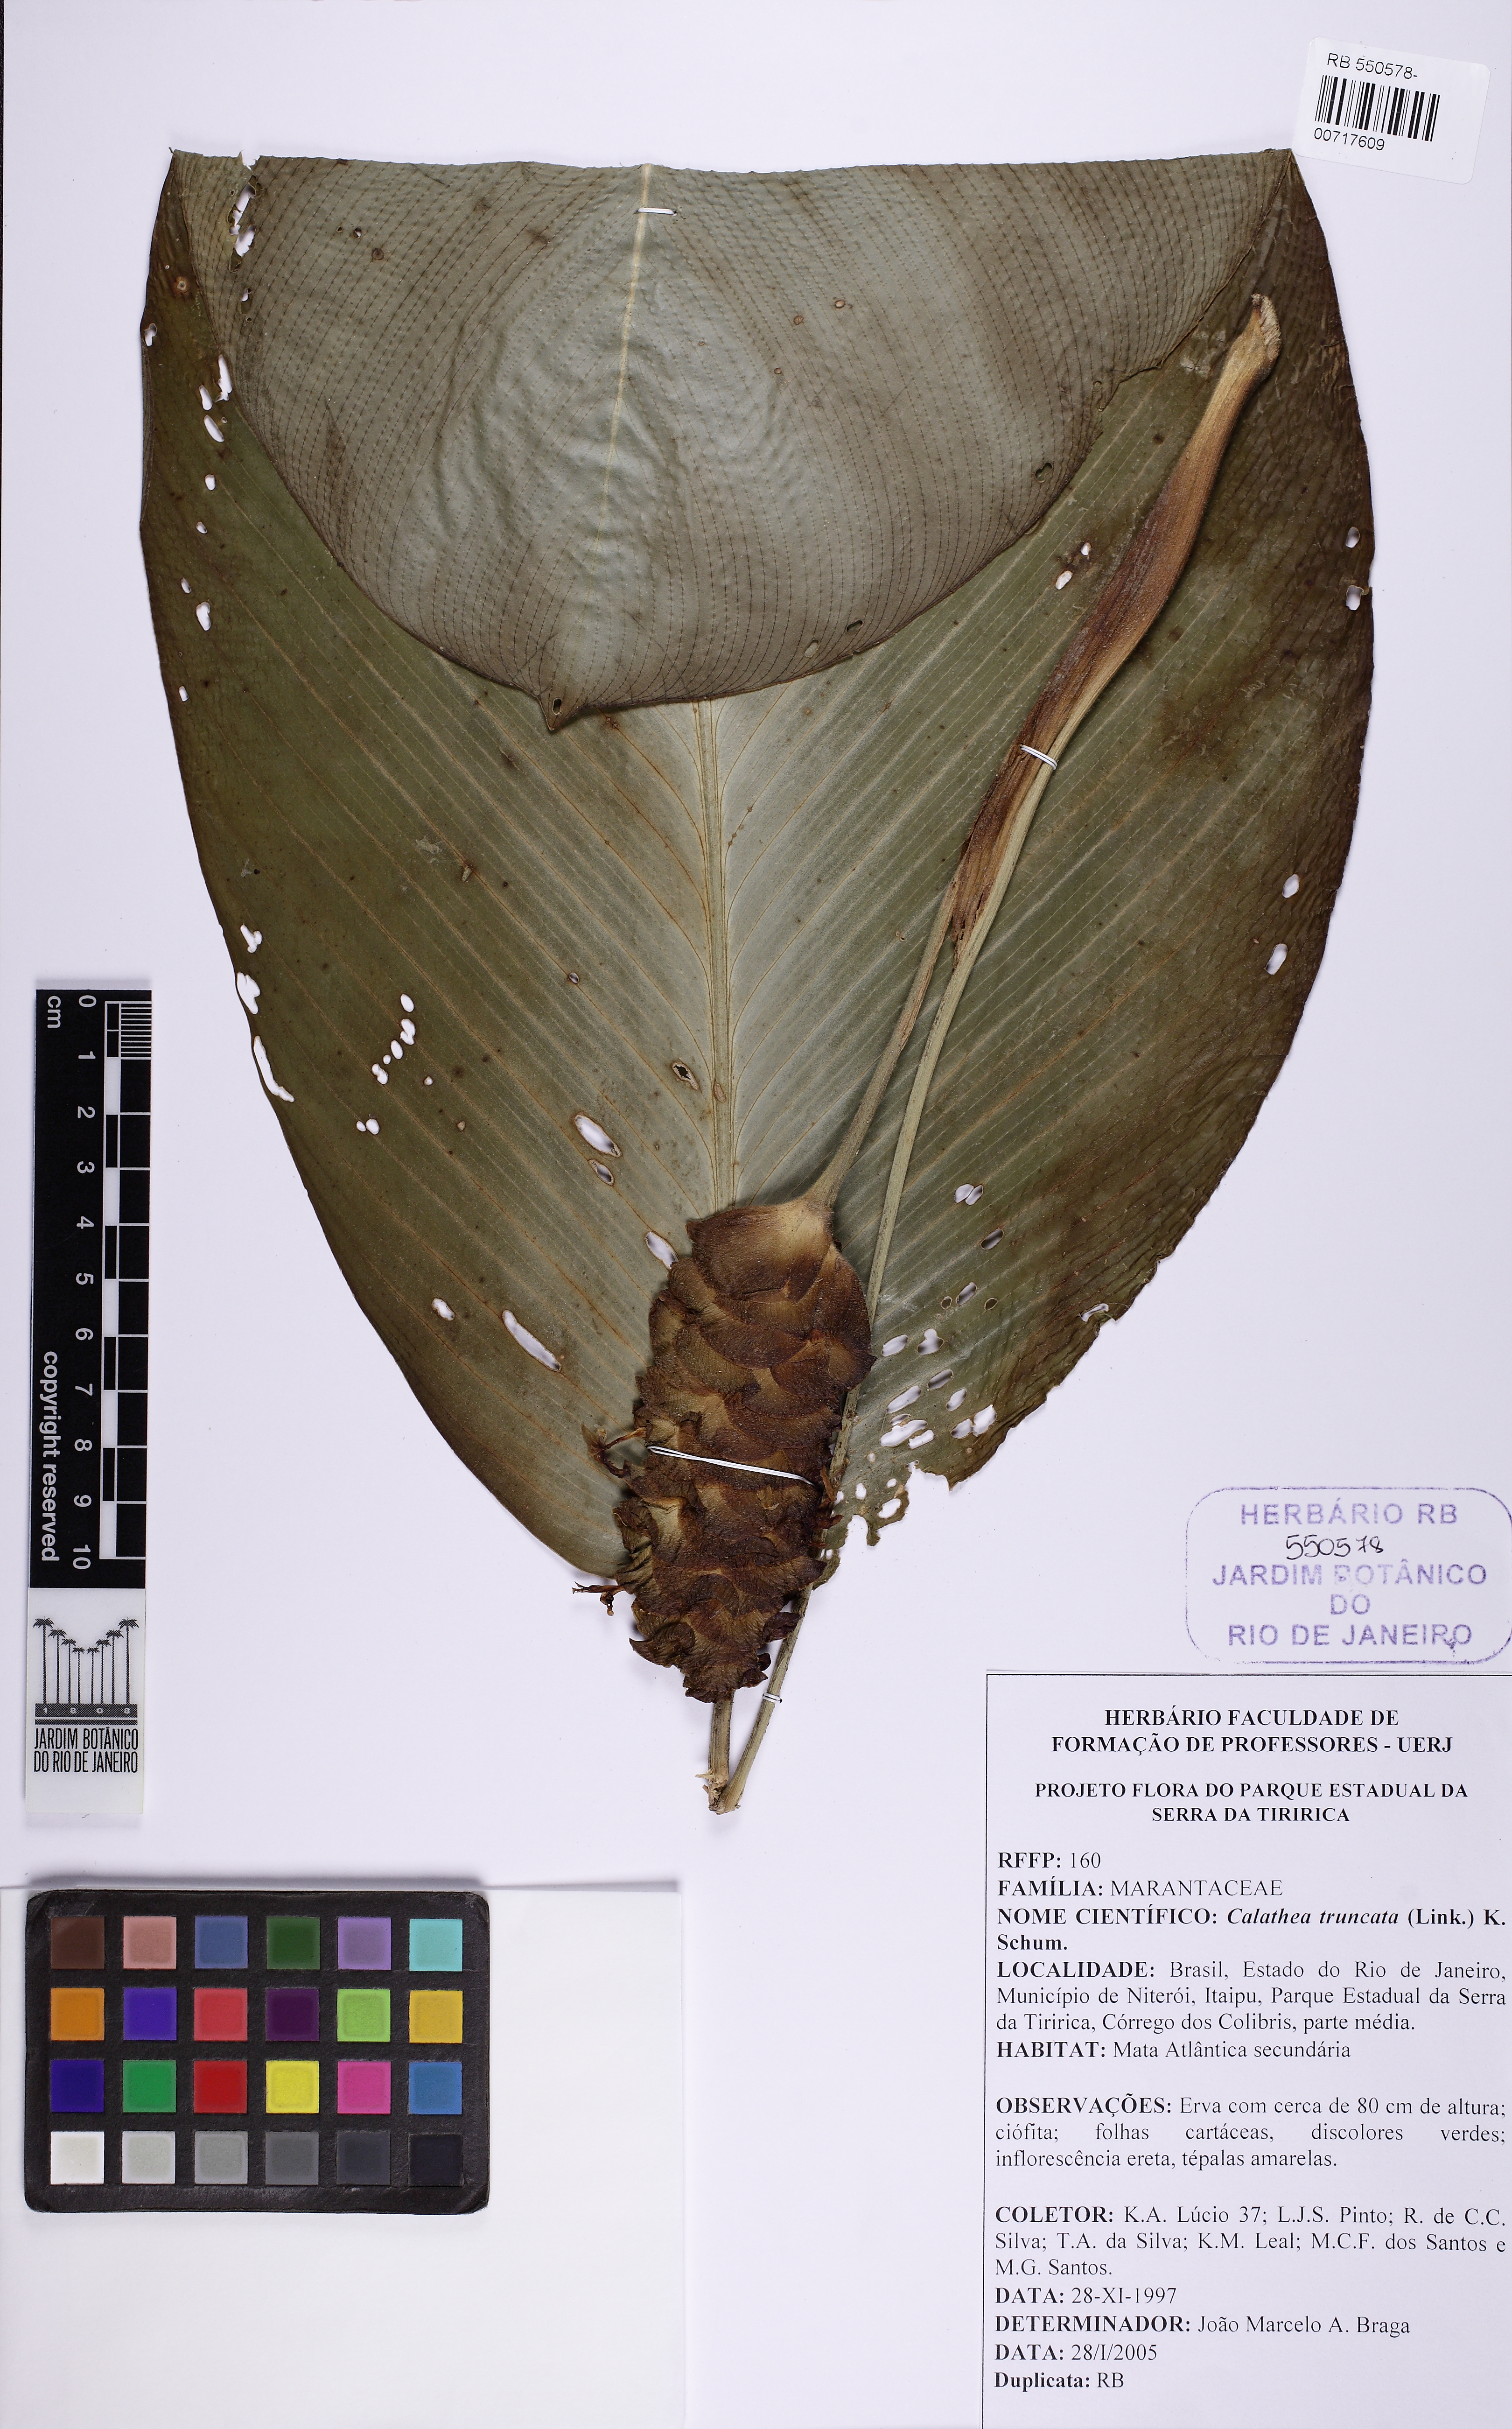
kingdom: Plantae
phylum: Tracheophyta
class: Liliopsida
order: Zingiberales
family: Marantaceae
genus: Goeppertia
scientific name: Goeppertia truncata
